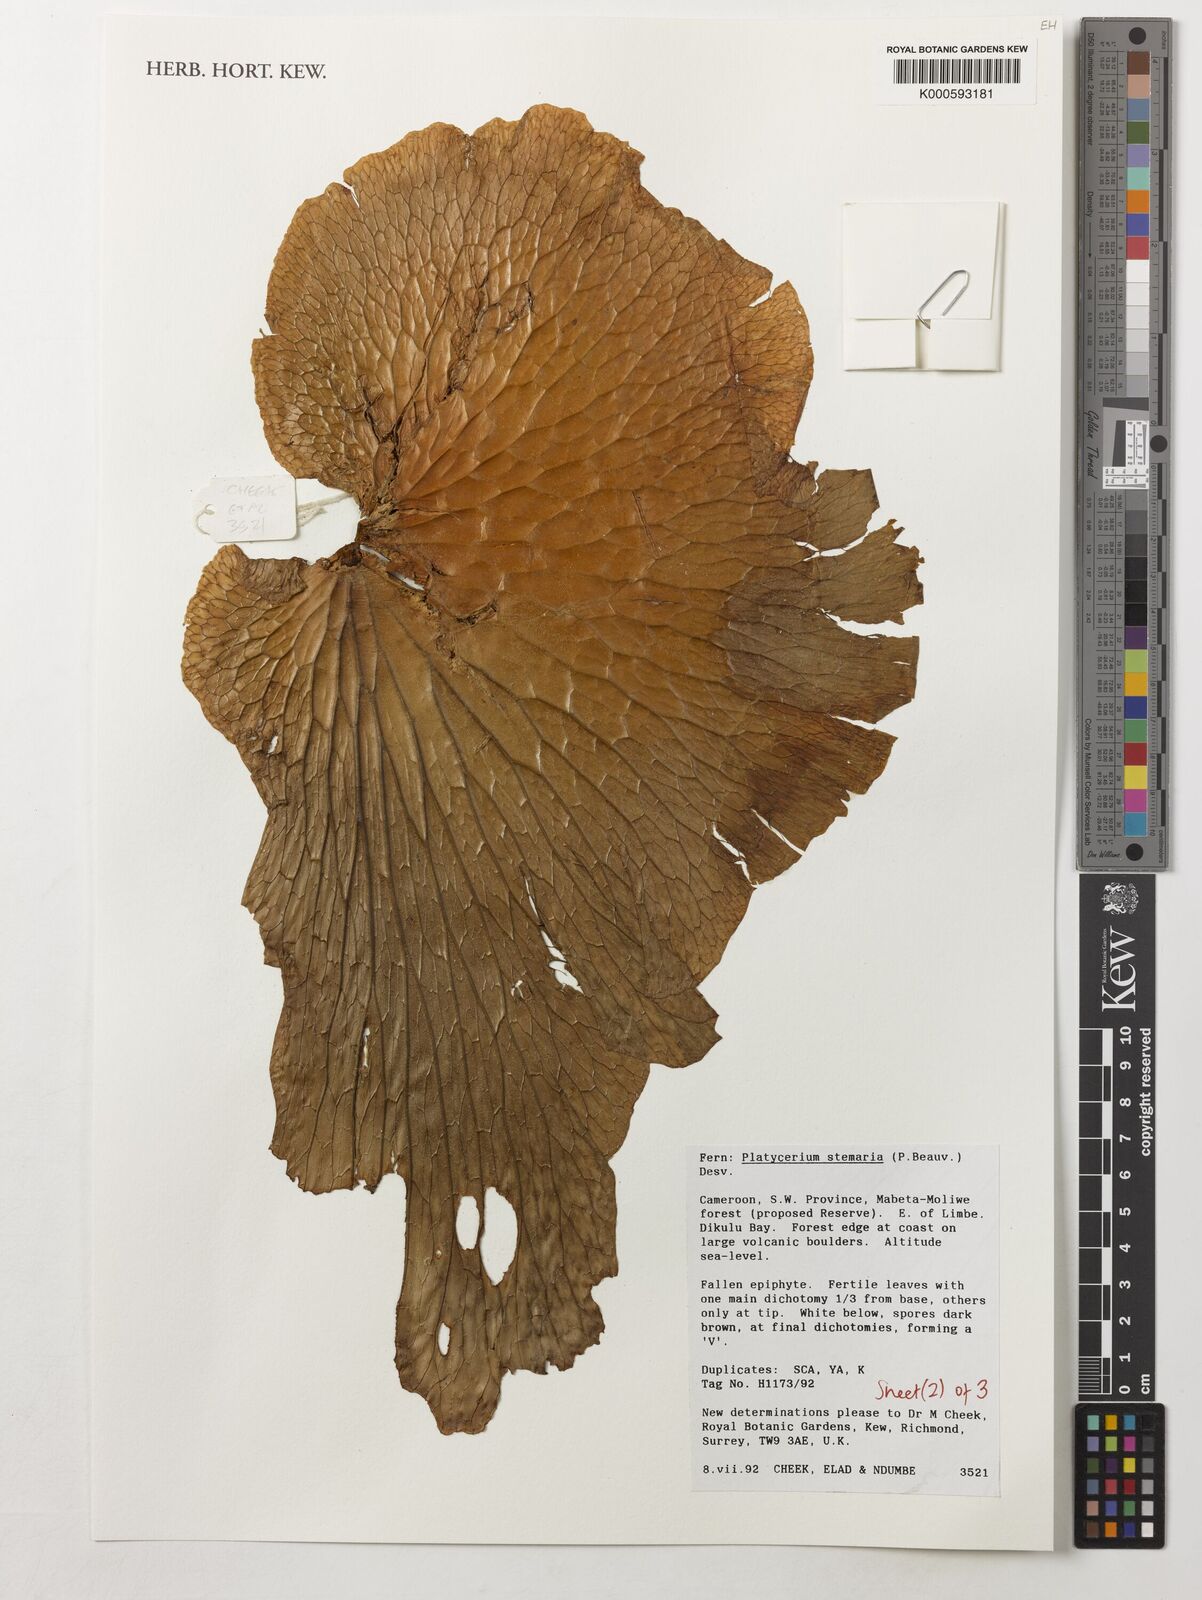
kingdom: Plantae
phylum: Tracheophyta
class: Polypodiopsida
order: Polypodiales
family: Polypodiaceae
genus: Platycerium
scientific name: Platycerium stemaria
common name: Triangular staghorn fern
